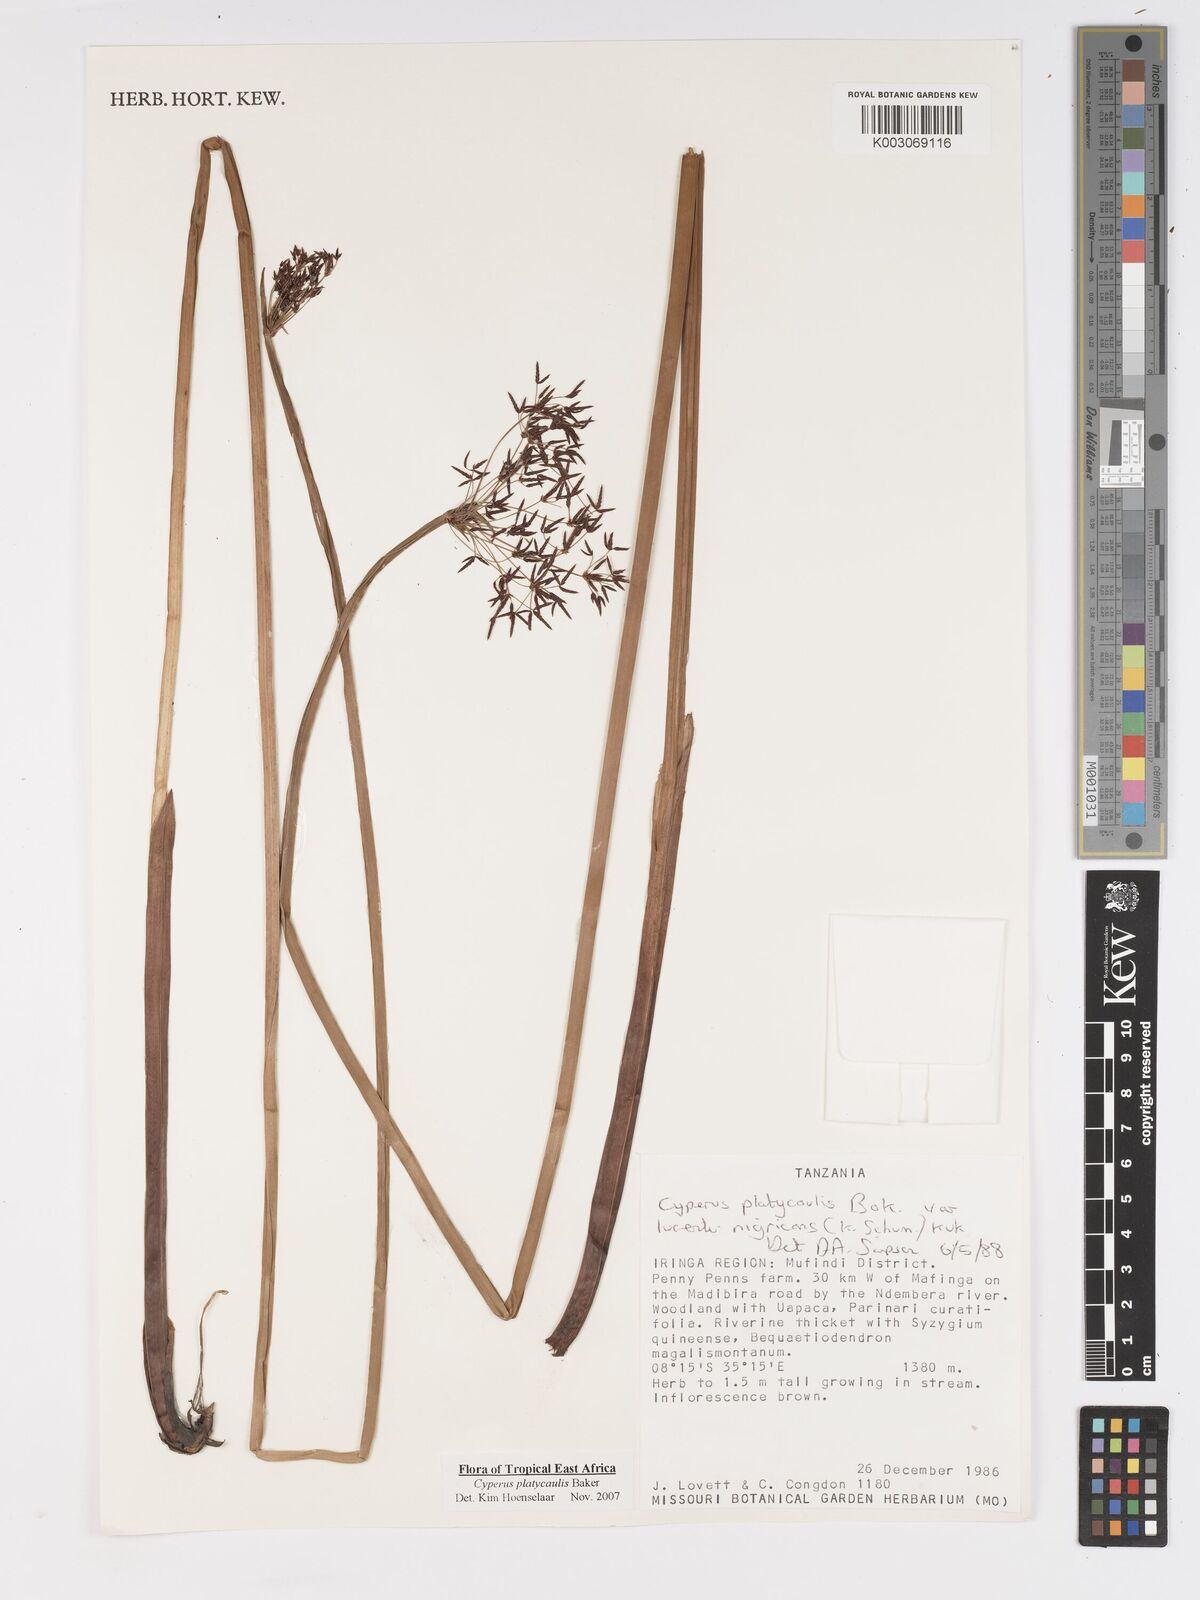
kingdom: Plantae
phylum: Tracheophyta
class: Liliopsida
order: Poales
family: Cyperaceae
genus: Cyperus
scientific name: Cyperus platycaulis
